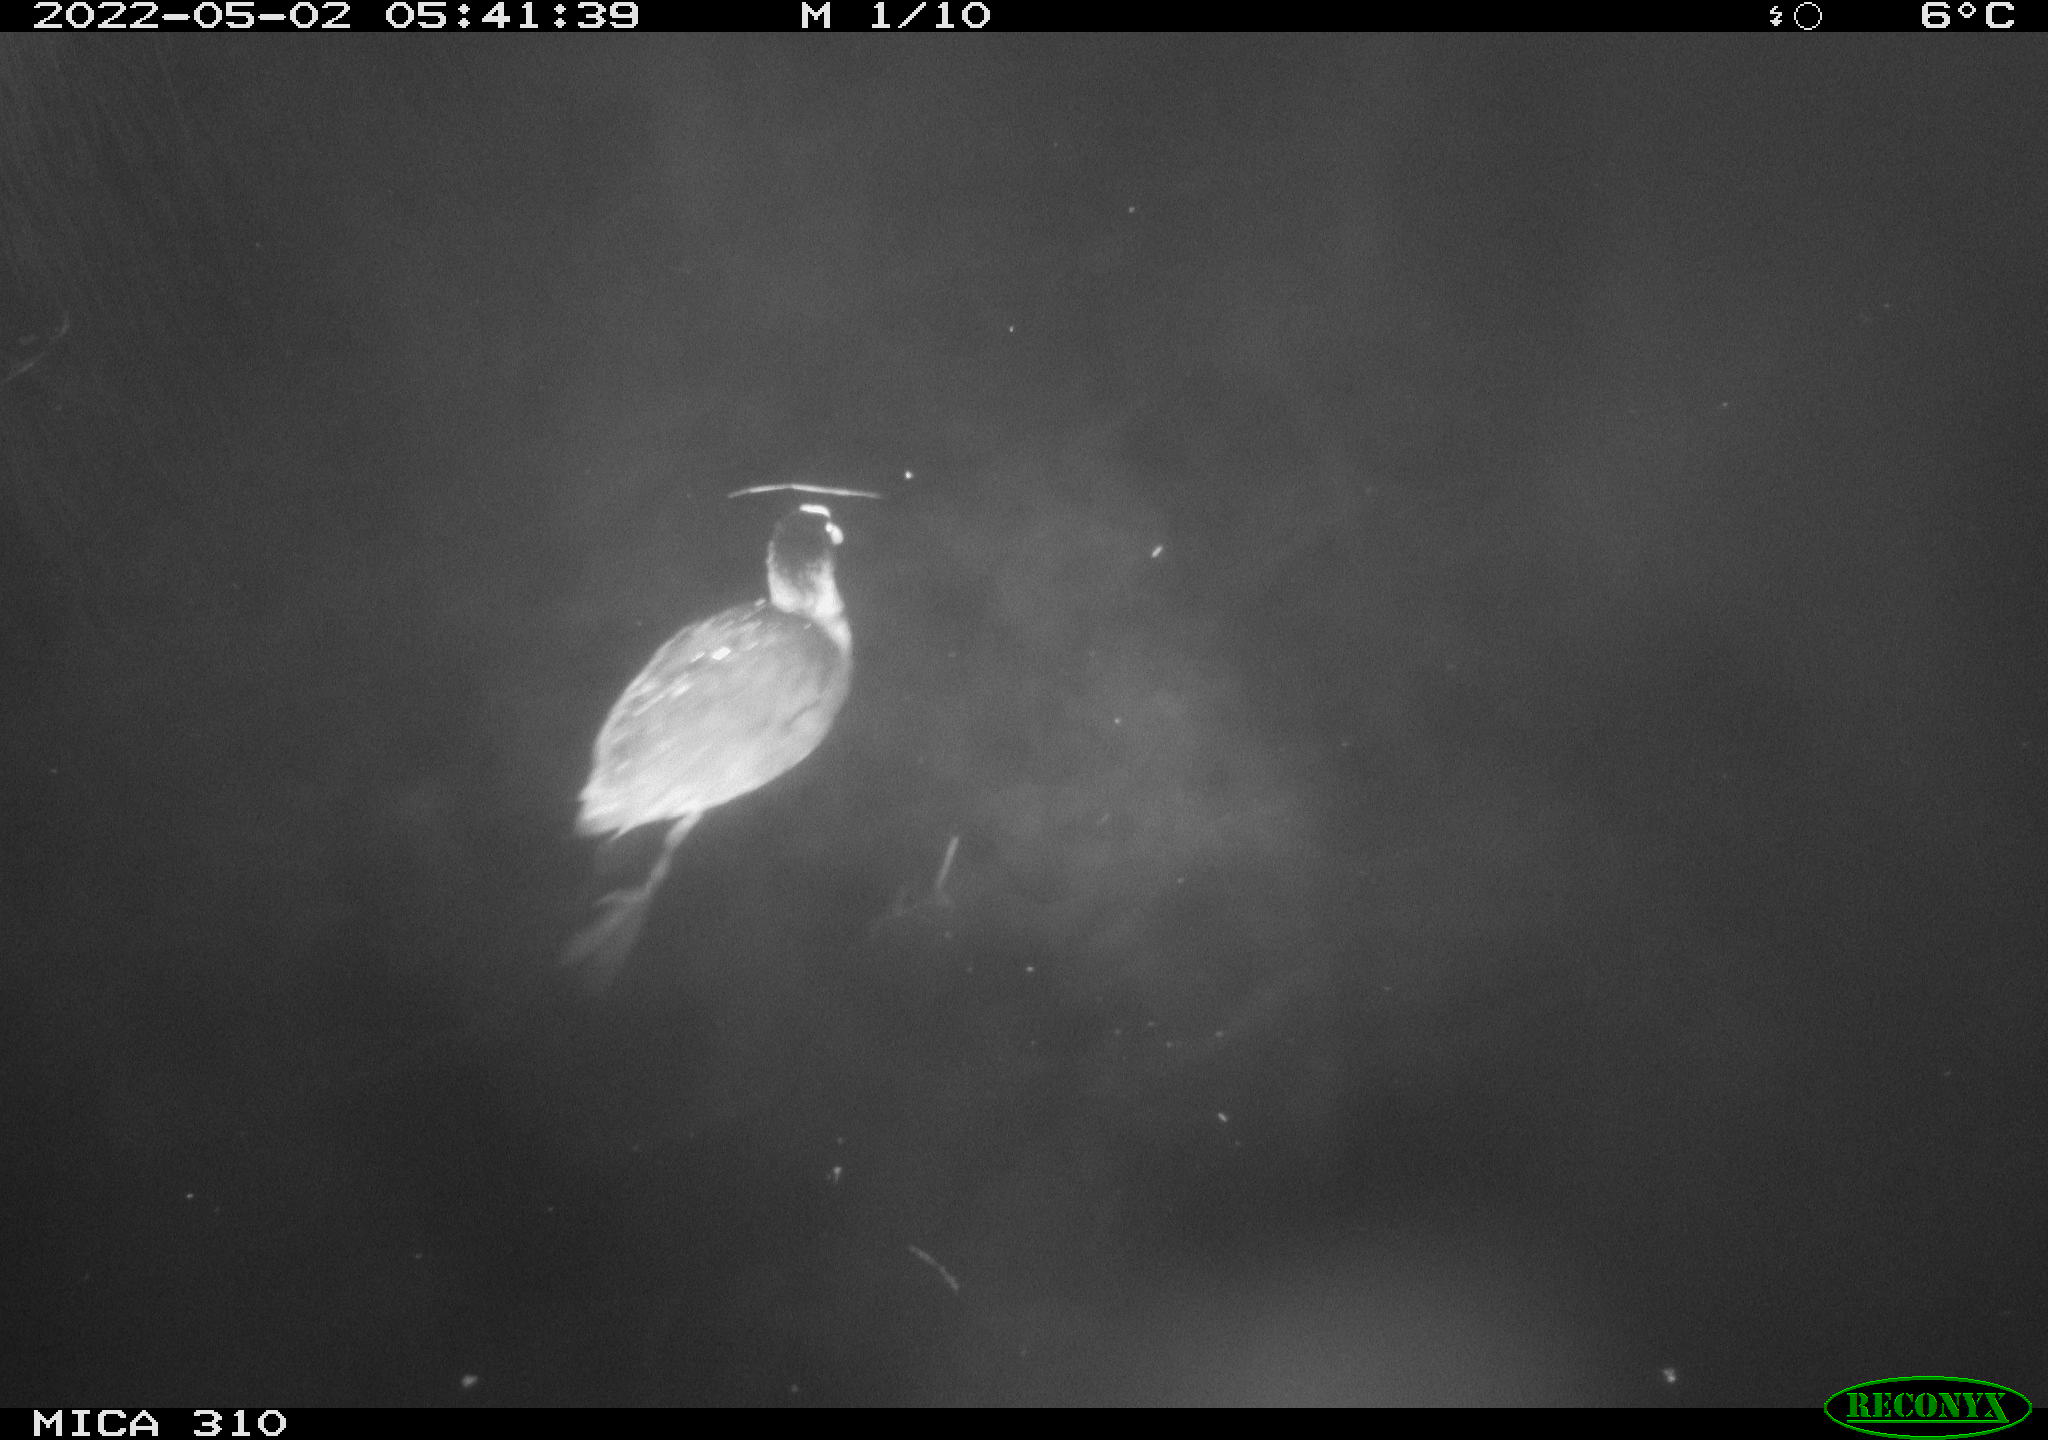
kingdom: Animalia
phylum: Chordata
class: Aves
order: Gruiformes
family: Rallidae
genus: Fulica
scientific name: Fulica atra
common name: Eurasian coot
